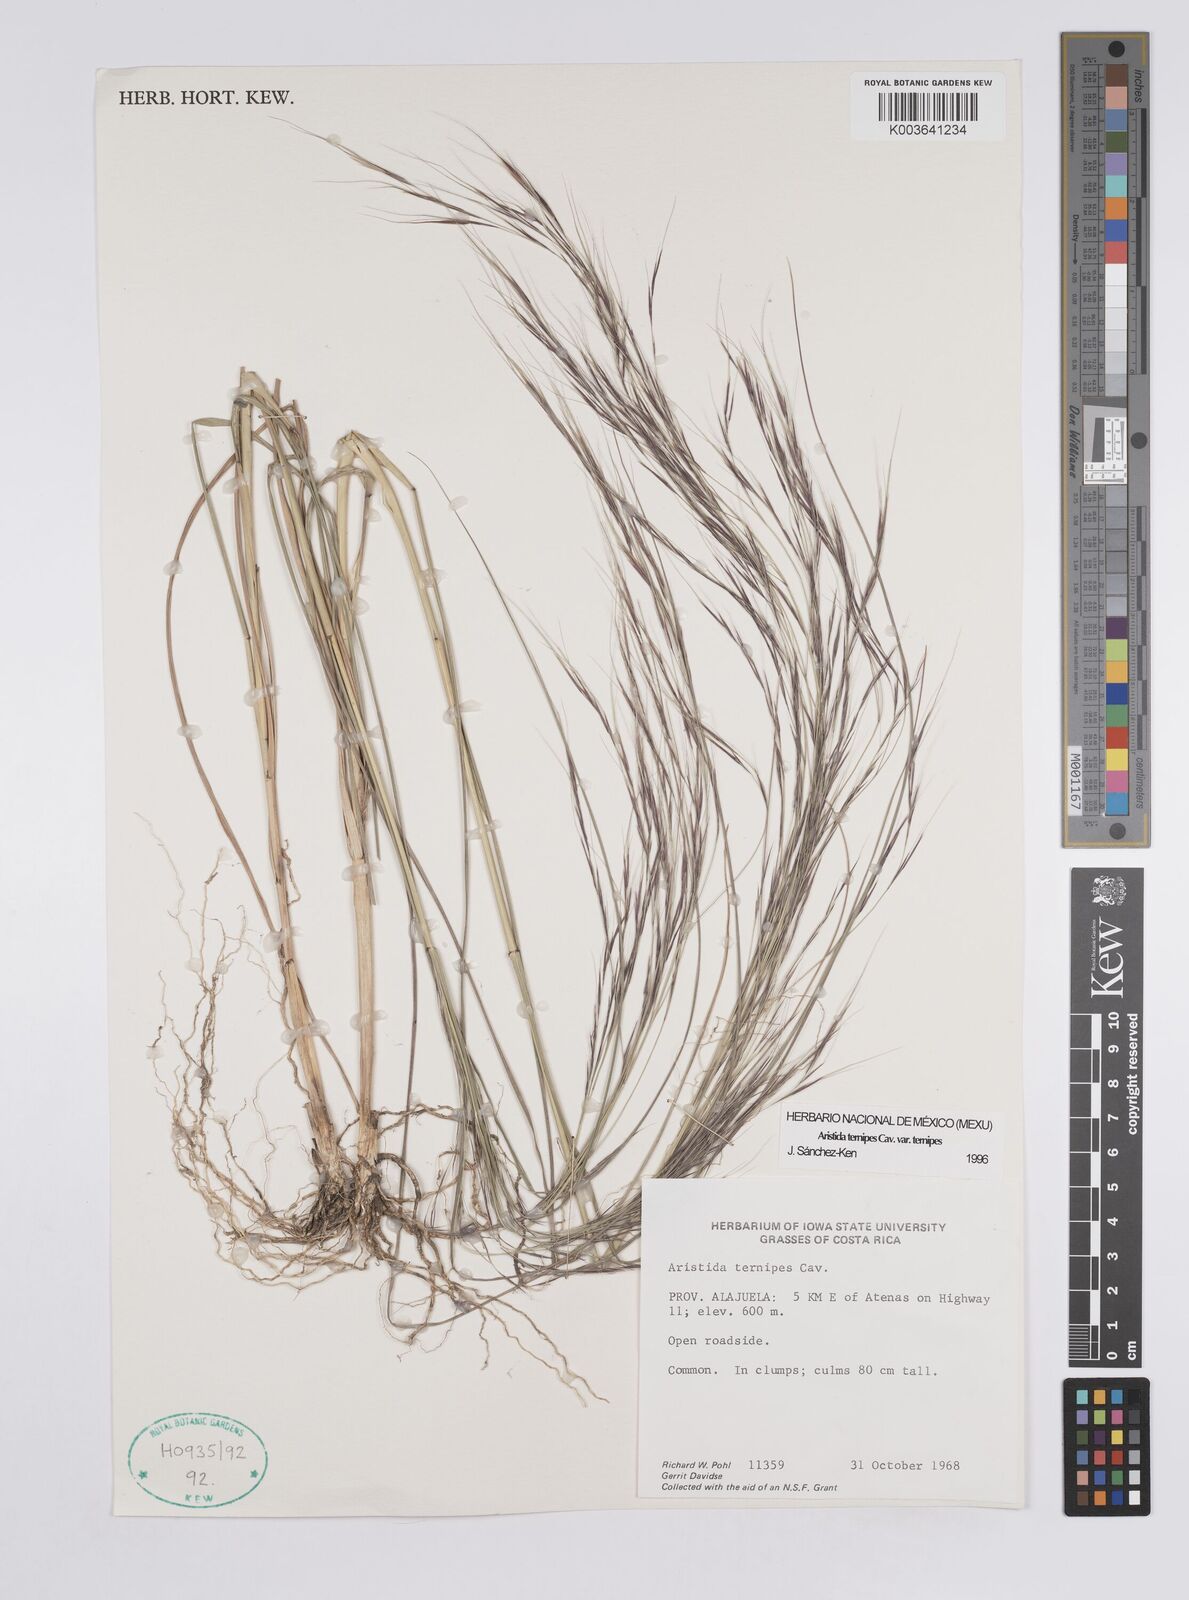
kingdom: Plantae
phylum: Tracheophyta
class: Liliopsida
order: Poales
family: Poaceae
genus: Aristida
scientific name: Aristida
